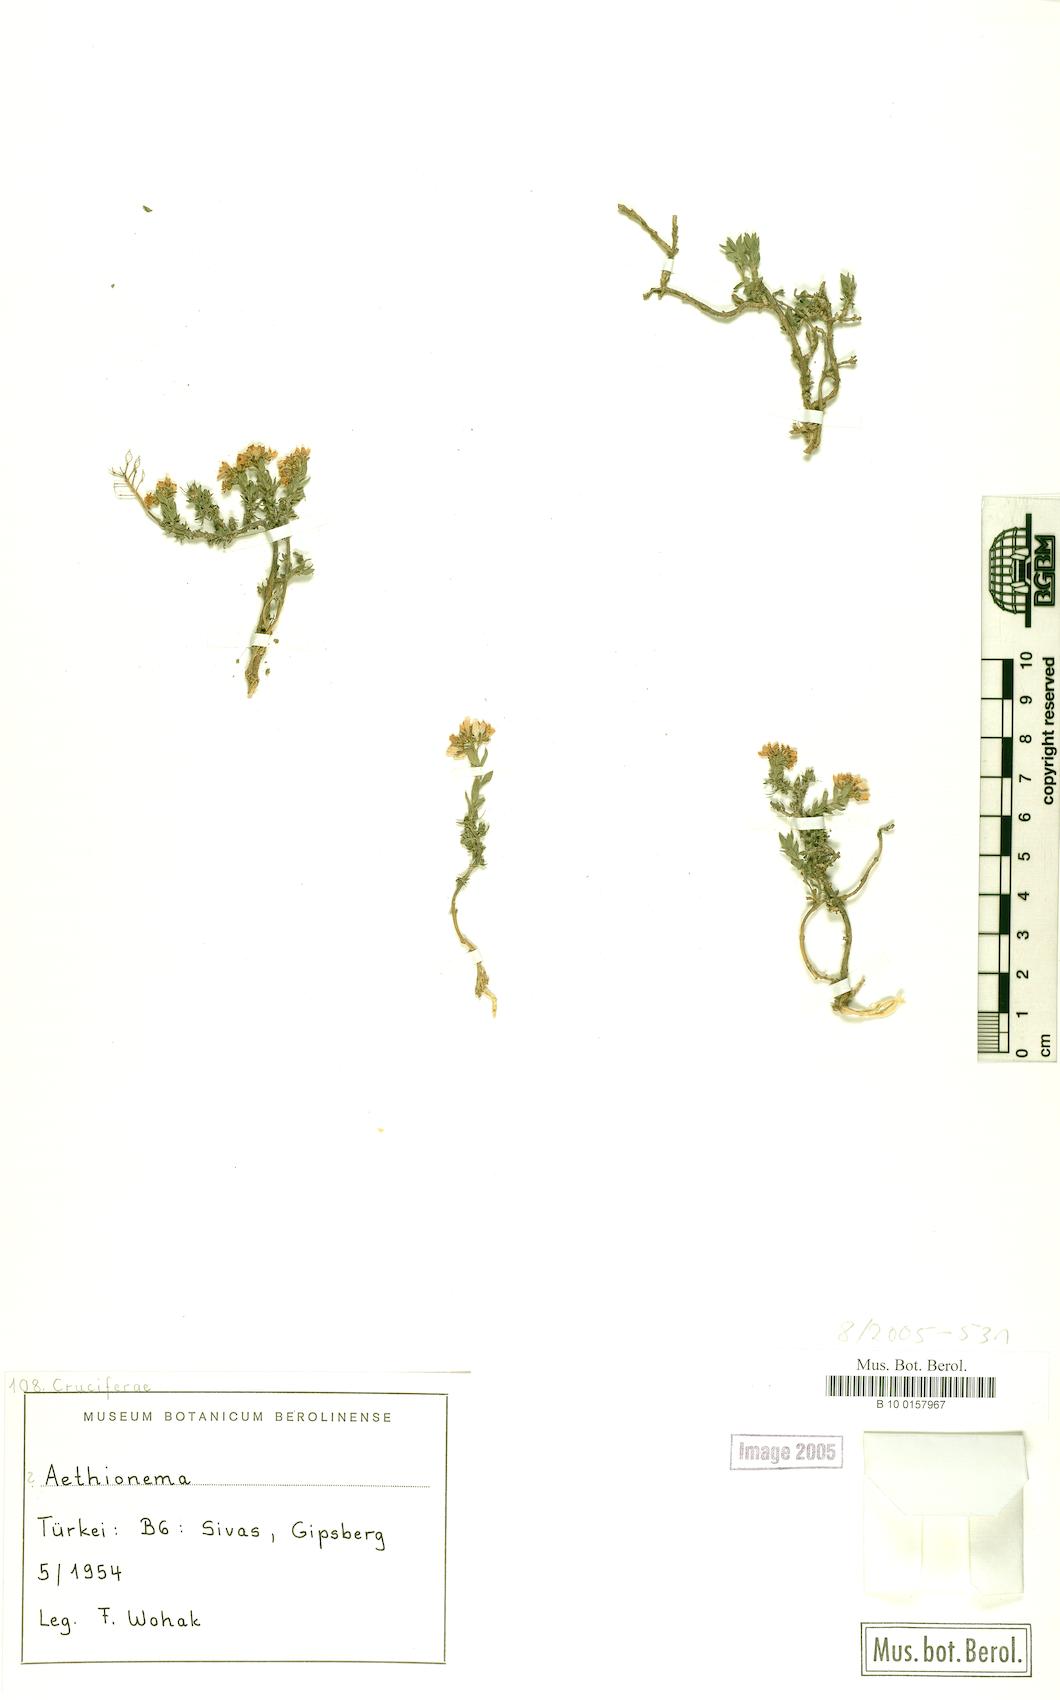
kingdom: Plantae
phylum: Tracheophyta
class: Magnoliopsida
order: Brassicales
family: Brassicaceae
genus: Aethionema
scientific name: Aethionema
